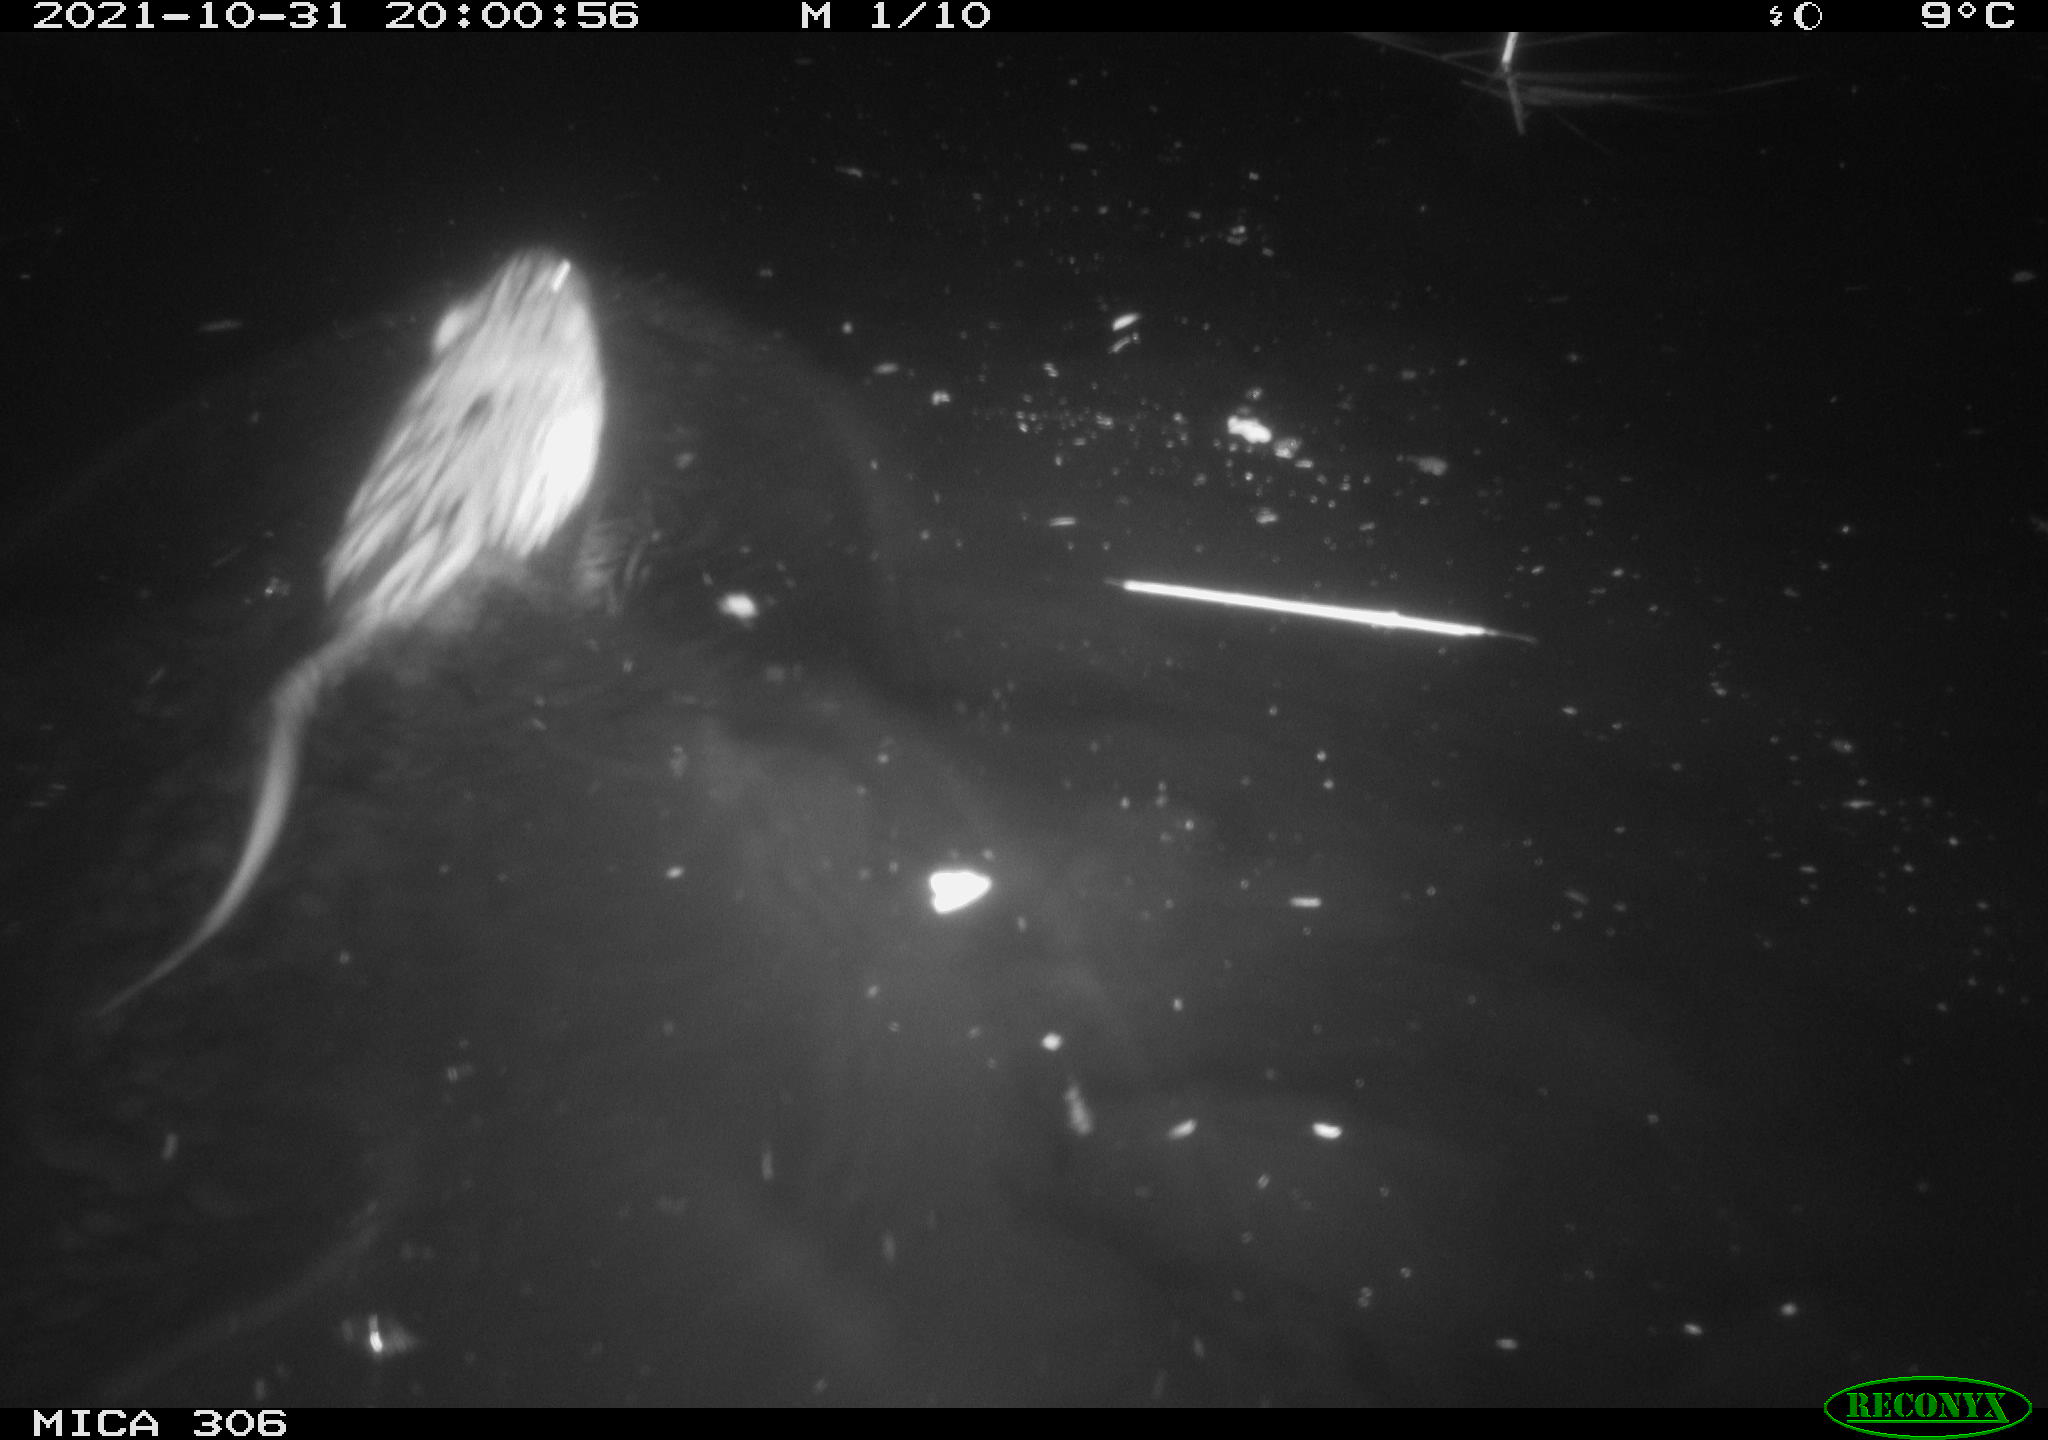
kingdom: Animalia
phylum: Chordata
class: Mammalia
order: Rodentia
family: Cricetidae
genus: Ondatra
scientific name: Ondatra zibethicus
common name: Muskrat
